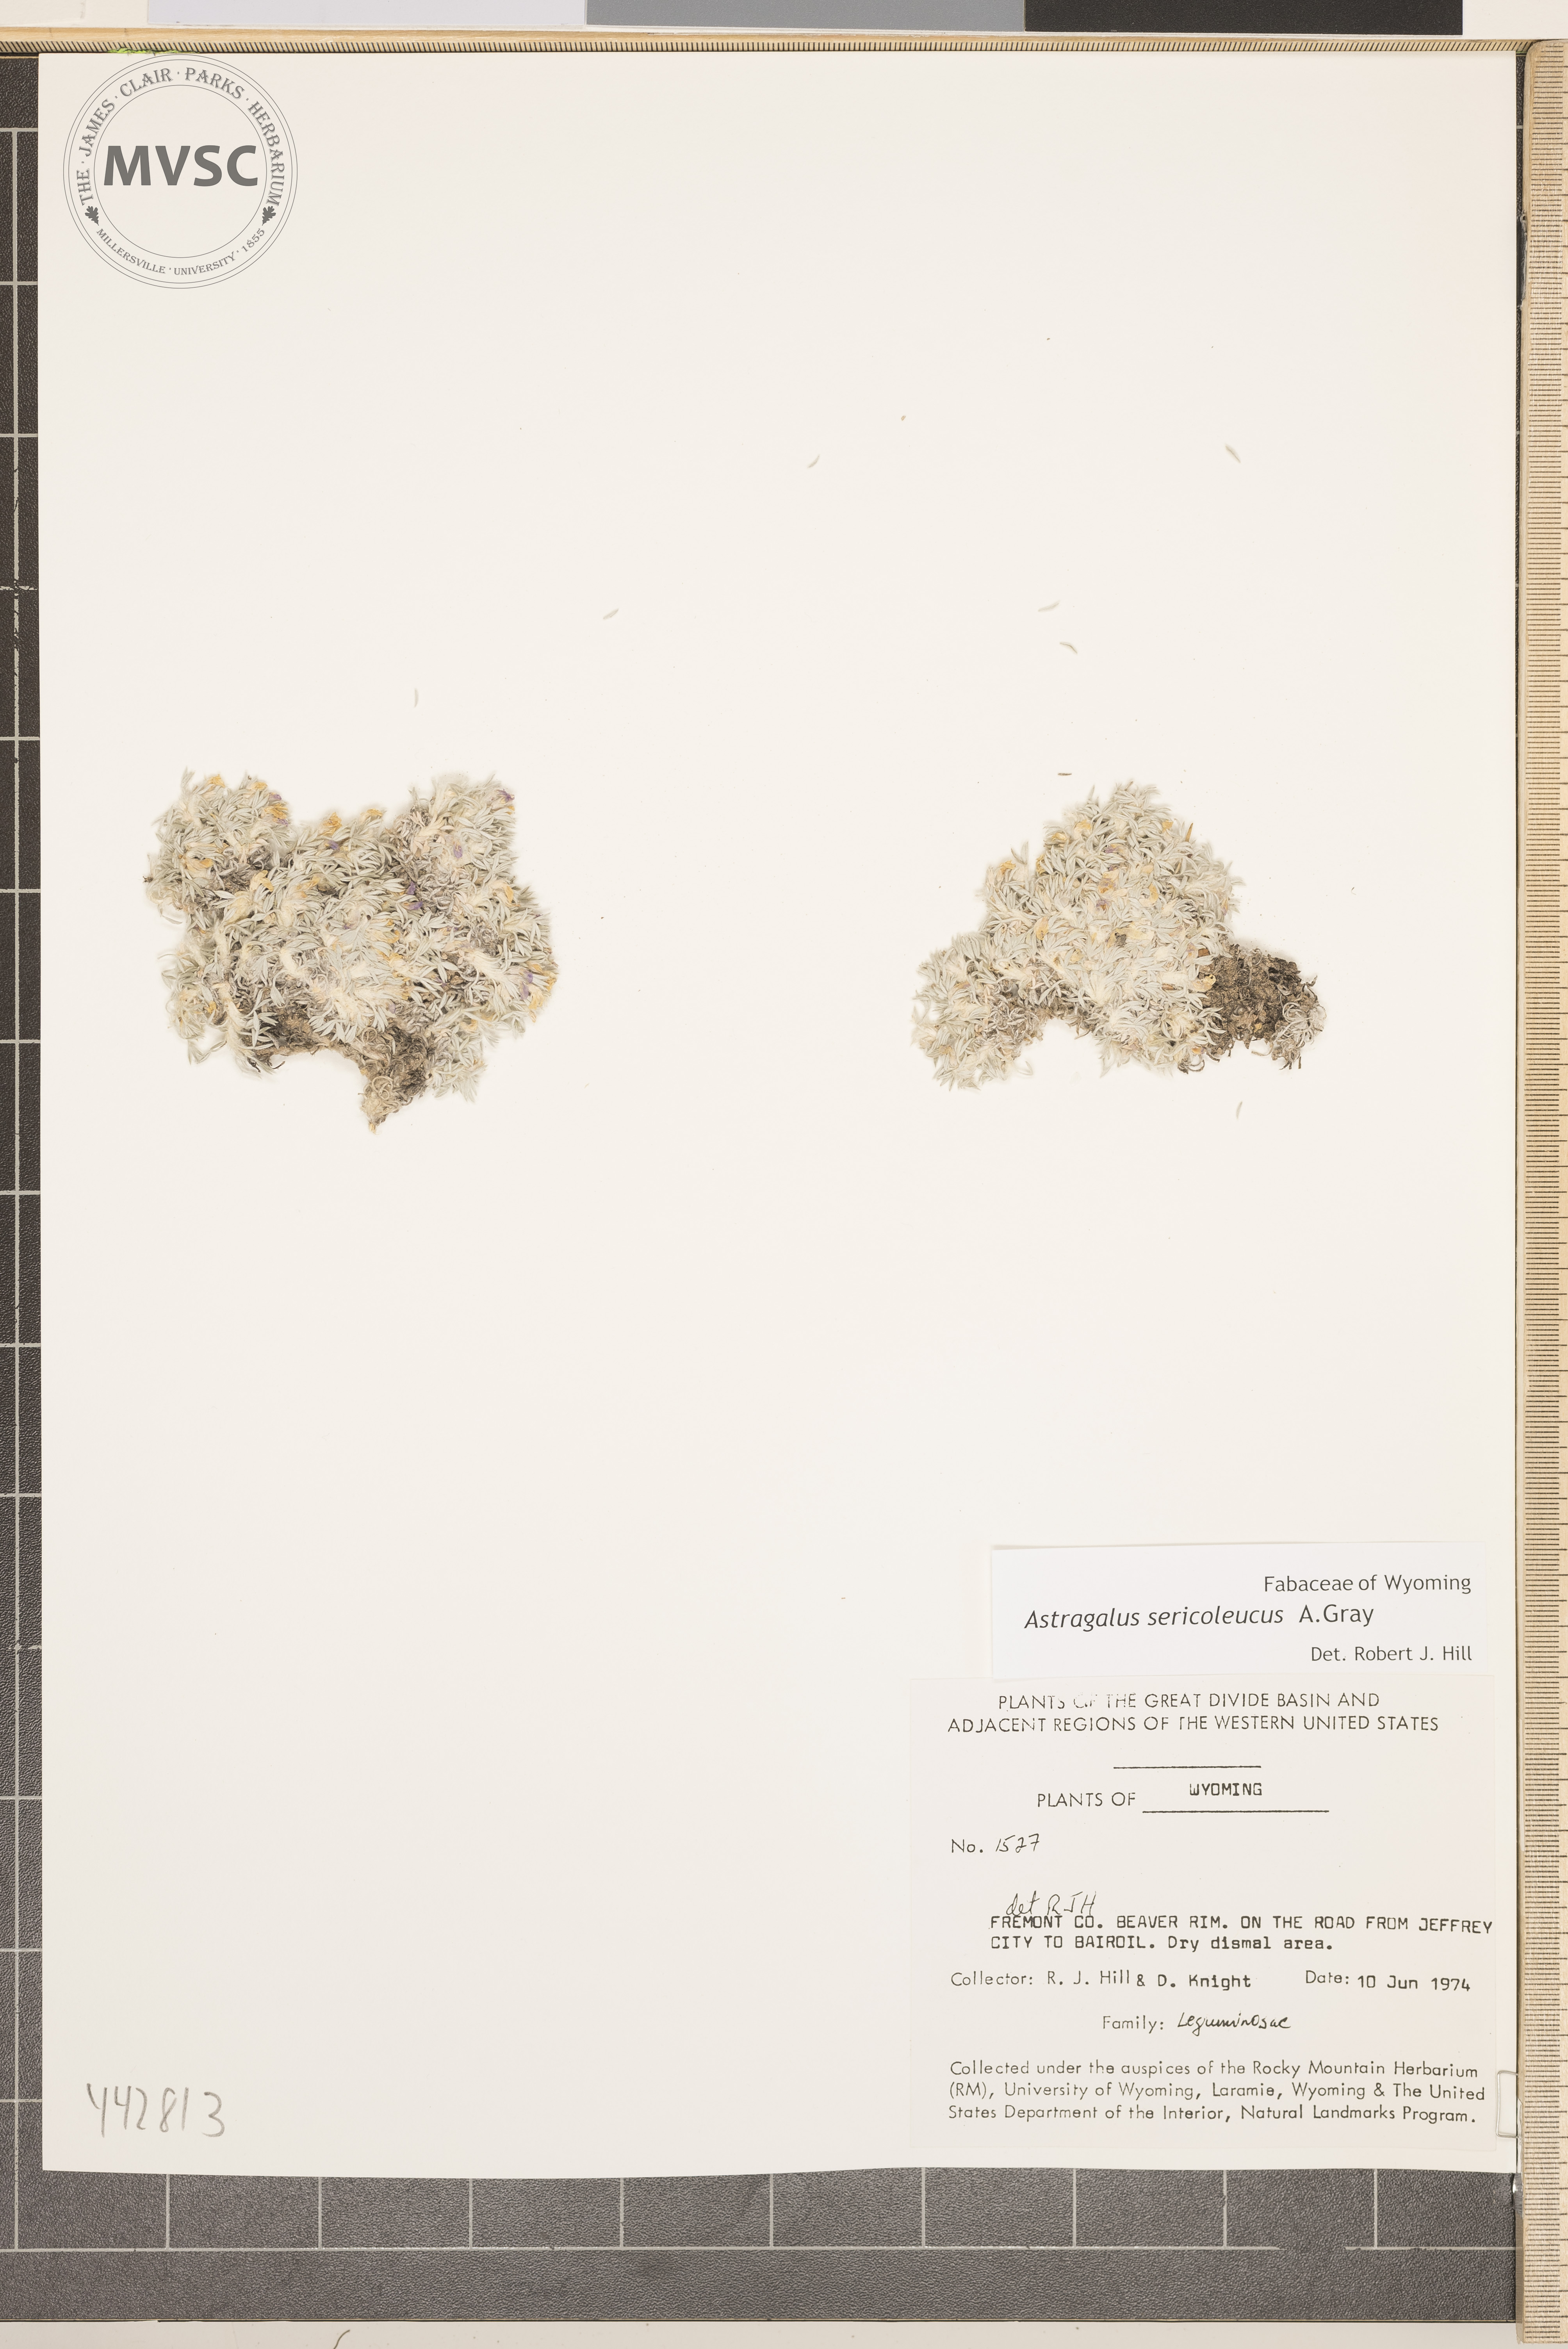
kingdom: Plantae
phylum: Tracheophyta
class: Magnoliopsida
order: Fabales
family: Fabaceae
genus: Astragalus
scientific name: Astragalus sericoleucus
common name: Silky orophaca
